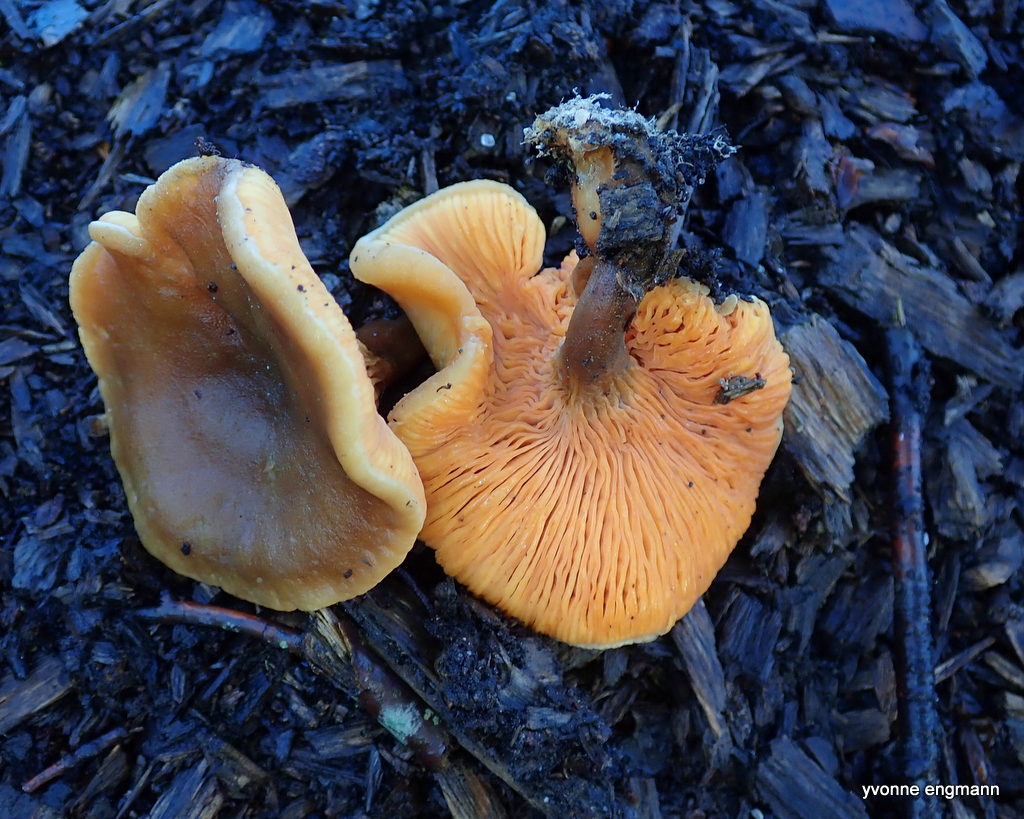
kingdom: Fungi
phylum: Basidiomycota
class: Agaricomycetes
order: Boletales
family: Hygrophoropsidaceae
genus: Hygrophoropsis
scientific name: Hygrophoropsis aurantiaca
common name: almindelig orangekantarel
